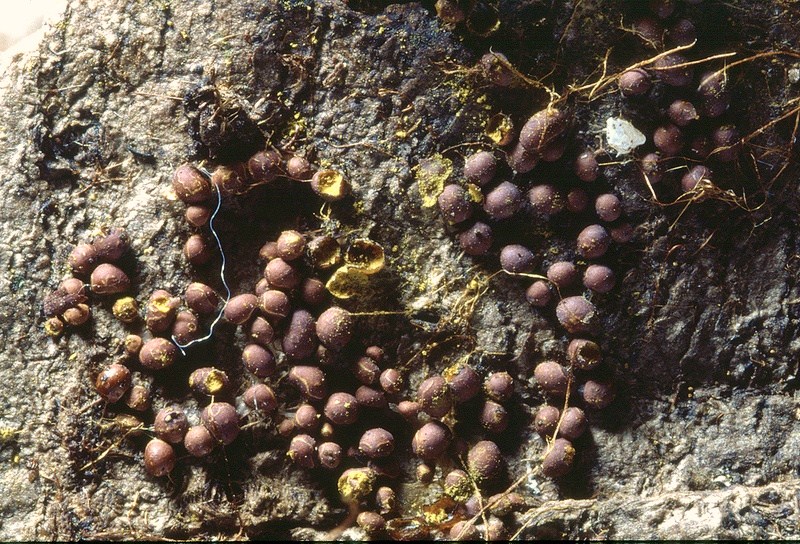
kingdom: Protozoa
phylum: Mycetozoa
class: Myxomycetes
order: Trichiales
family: Trichiaceae
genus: Perichaena
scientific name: Perichaena corticalis
